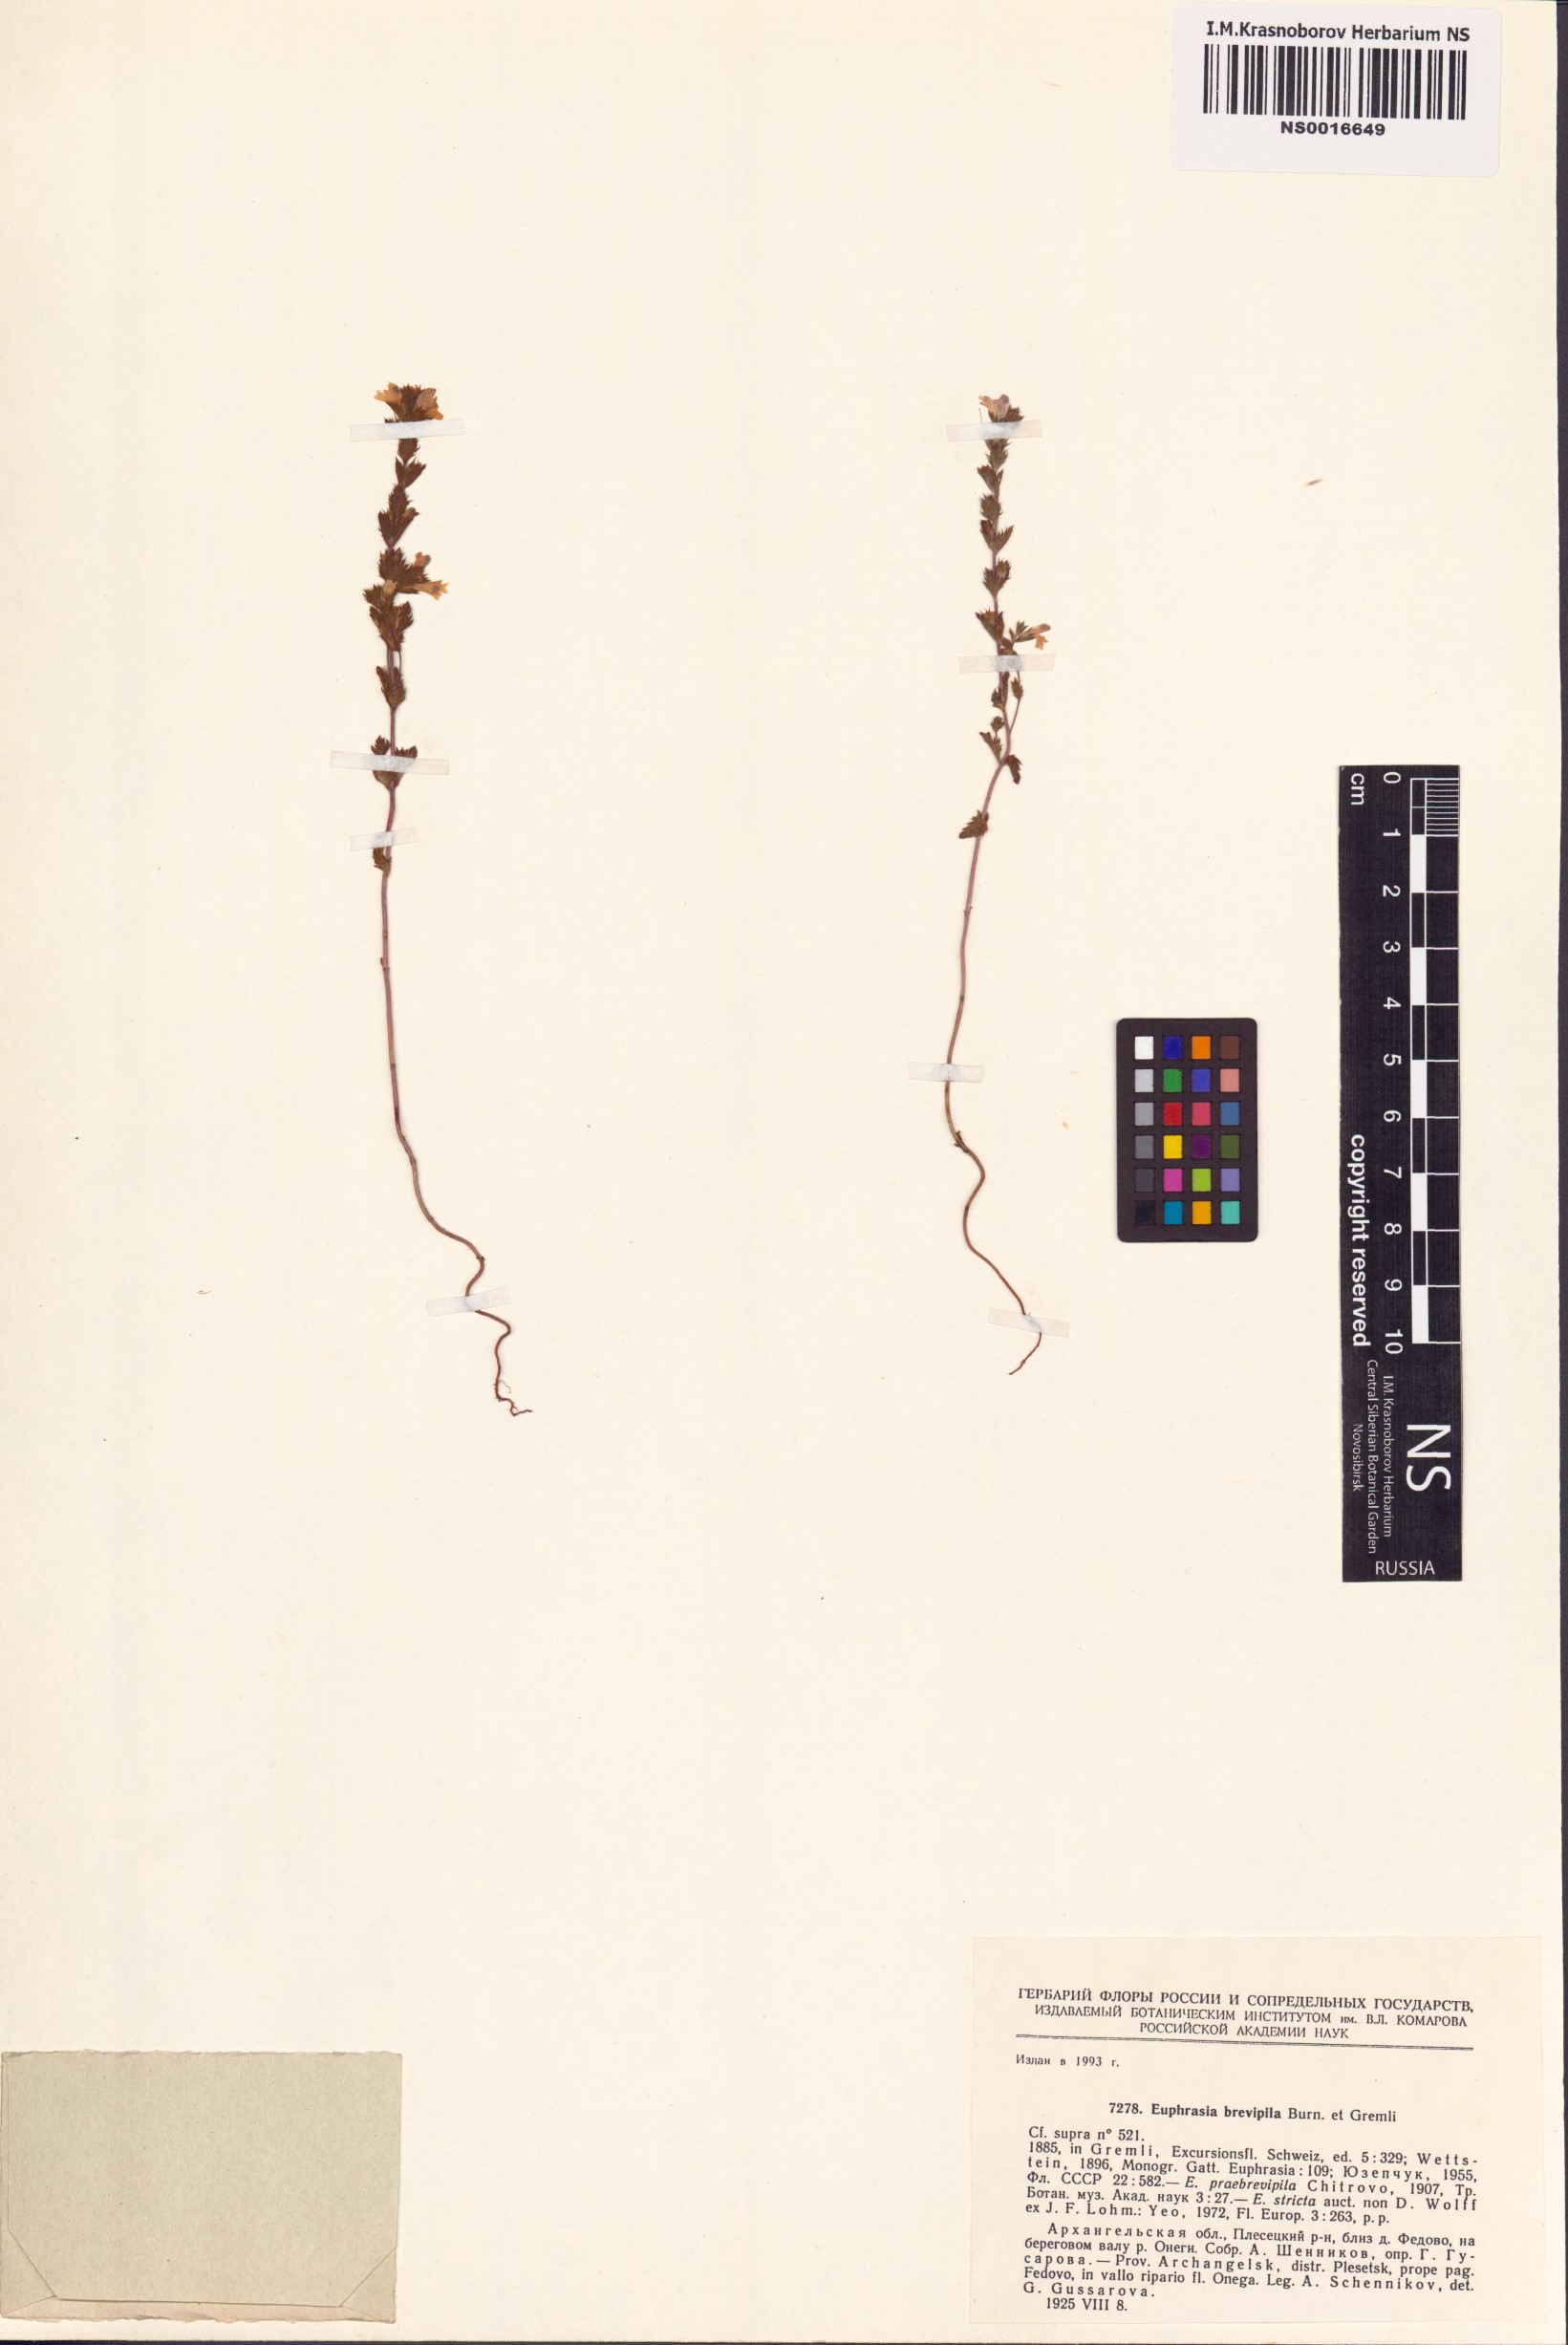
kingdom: Plantae
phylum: Tracheophyta
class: Magnoliopsida
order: Lamiales
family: Orobanchaceae
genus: Euphrasia
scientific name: Euphrasia vernalis
